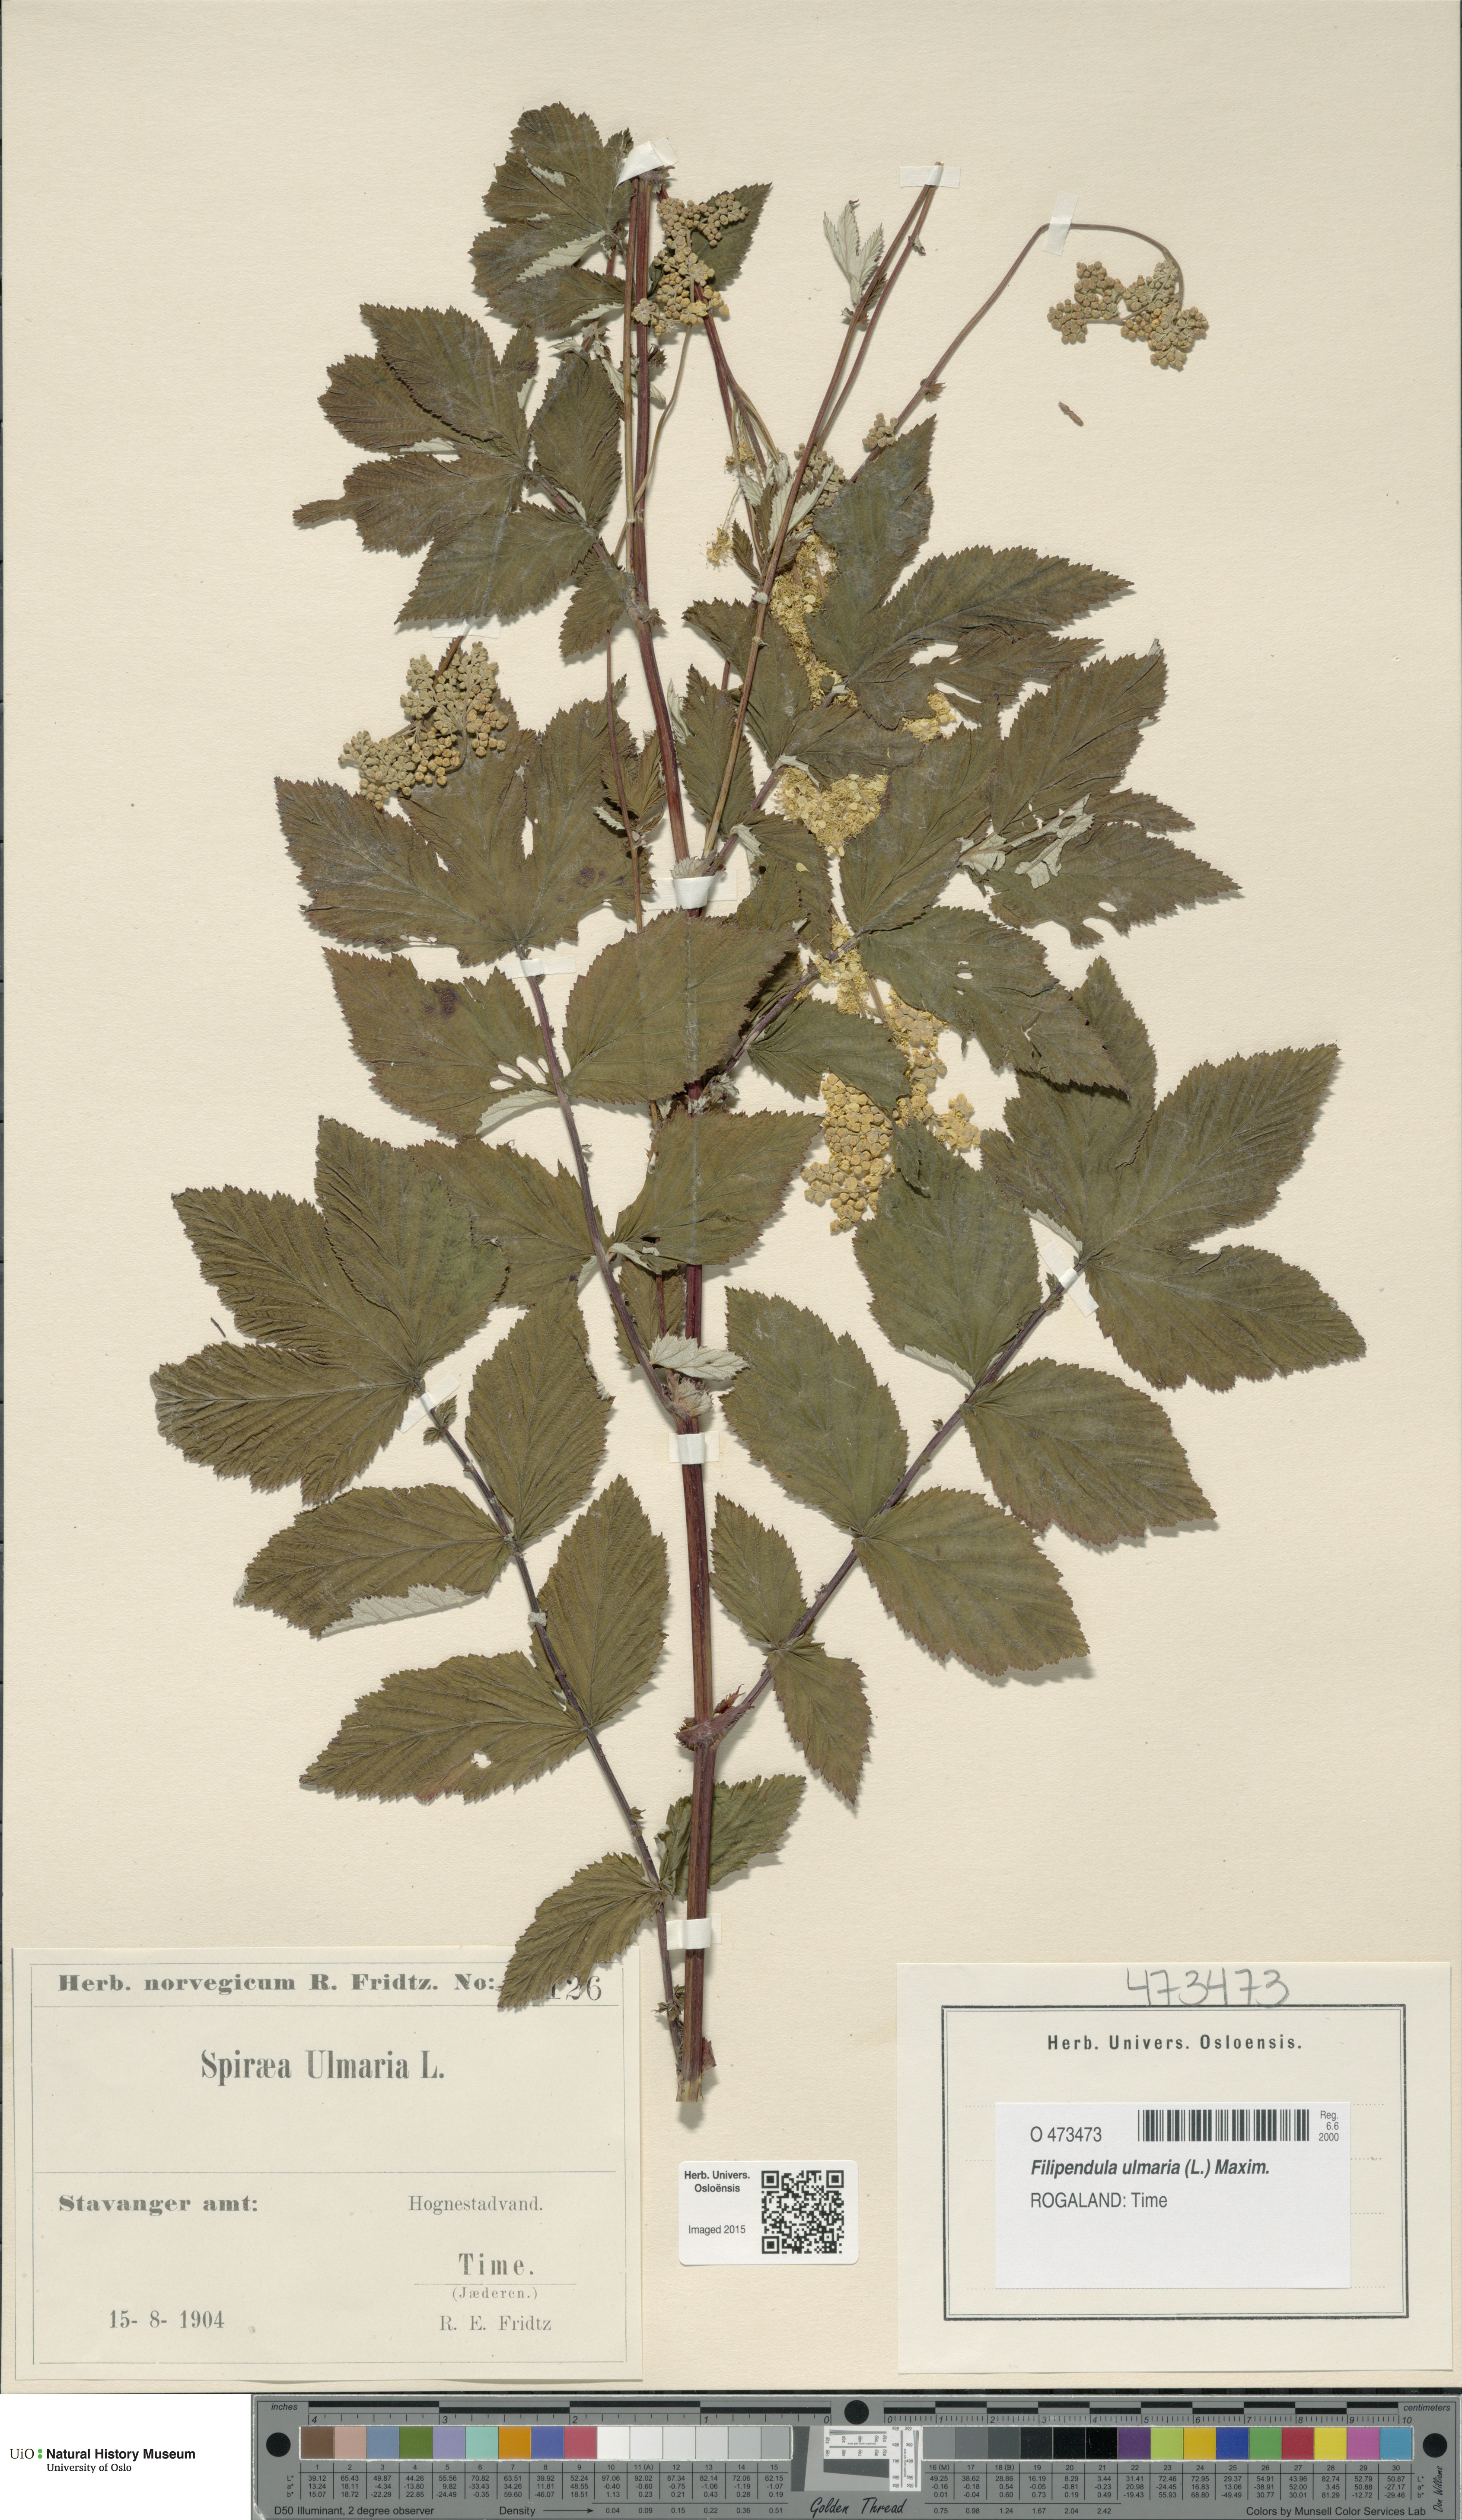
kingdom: Plantae
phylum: Tracheophyta
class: Magnoliopsida
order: Rosales
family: Rosaceae
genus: Filipendula
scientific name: Filipendula ulmaria
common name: Meadowsweet
